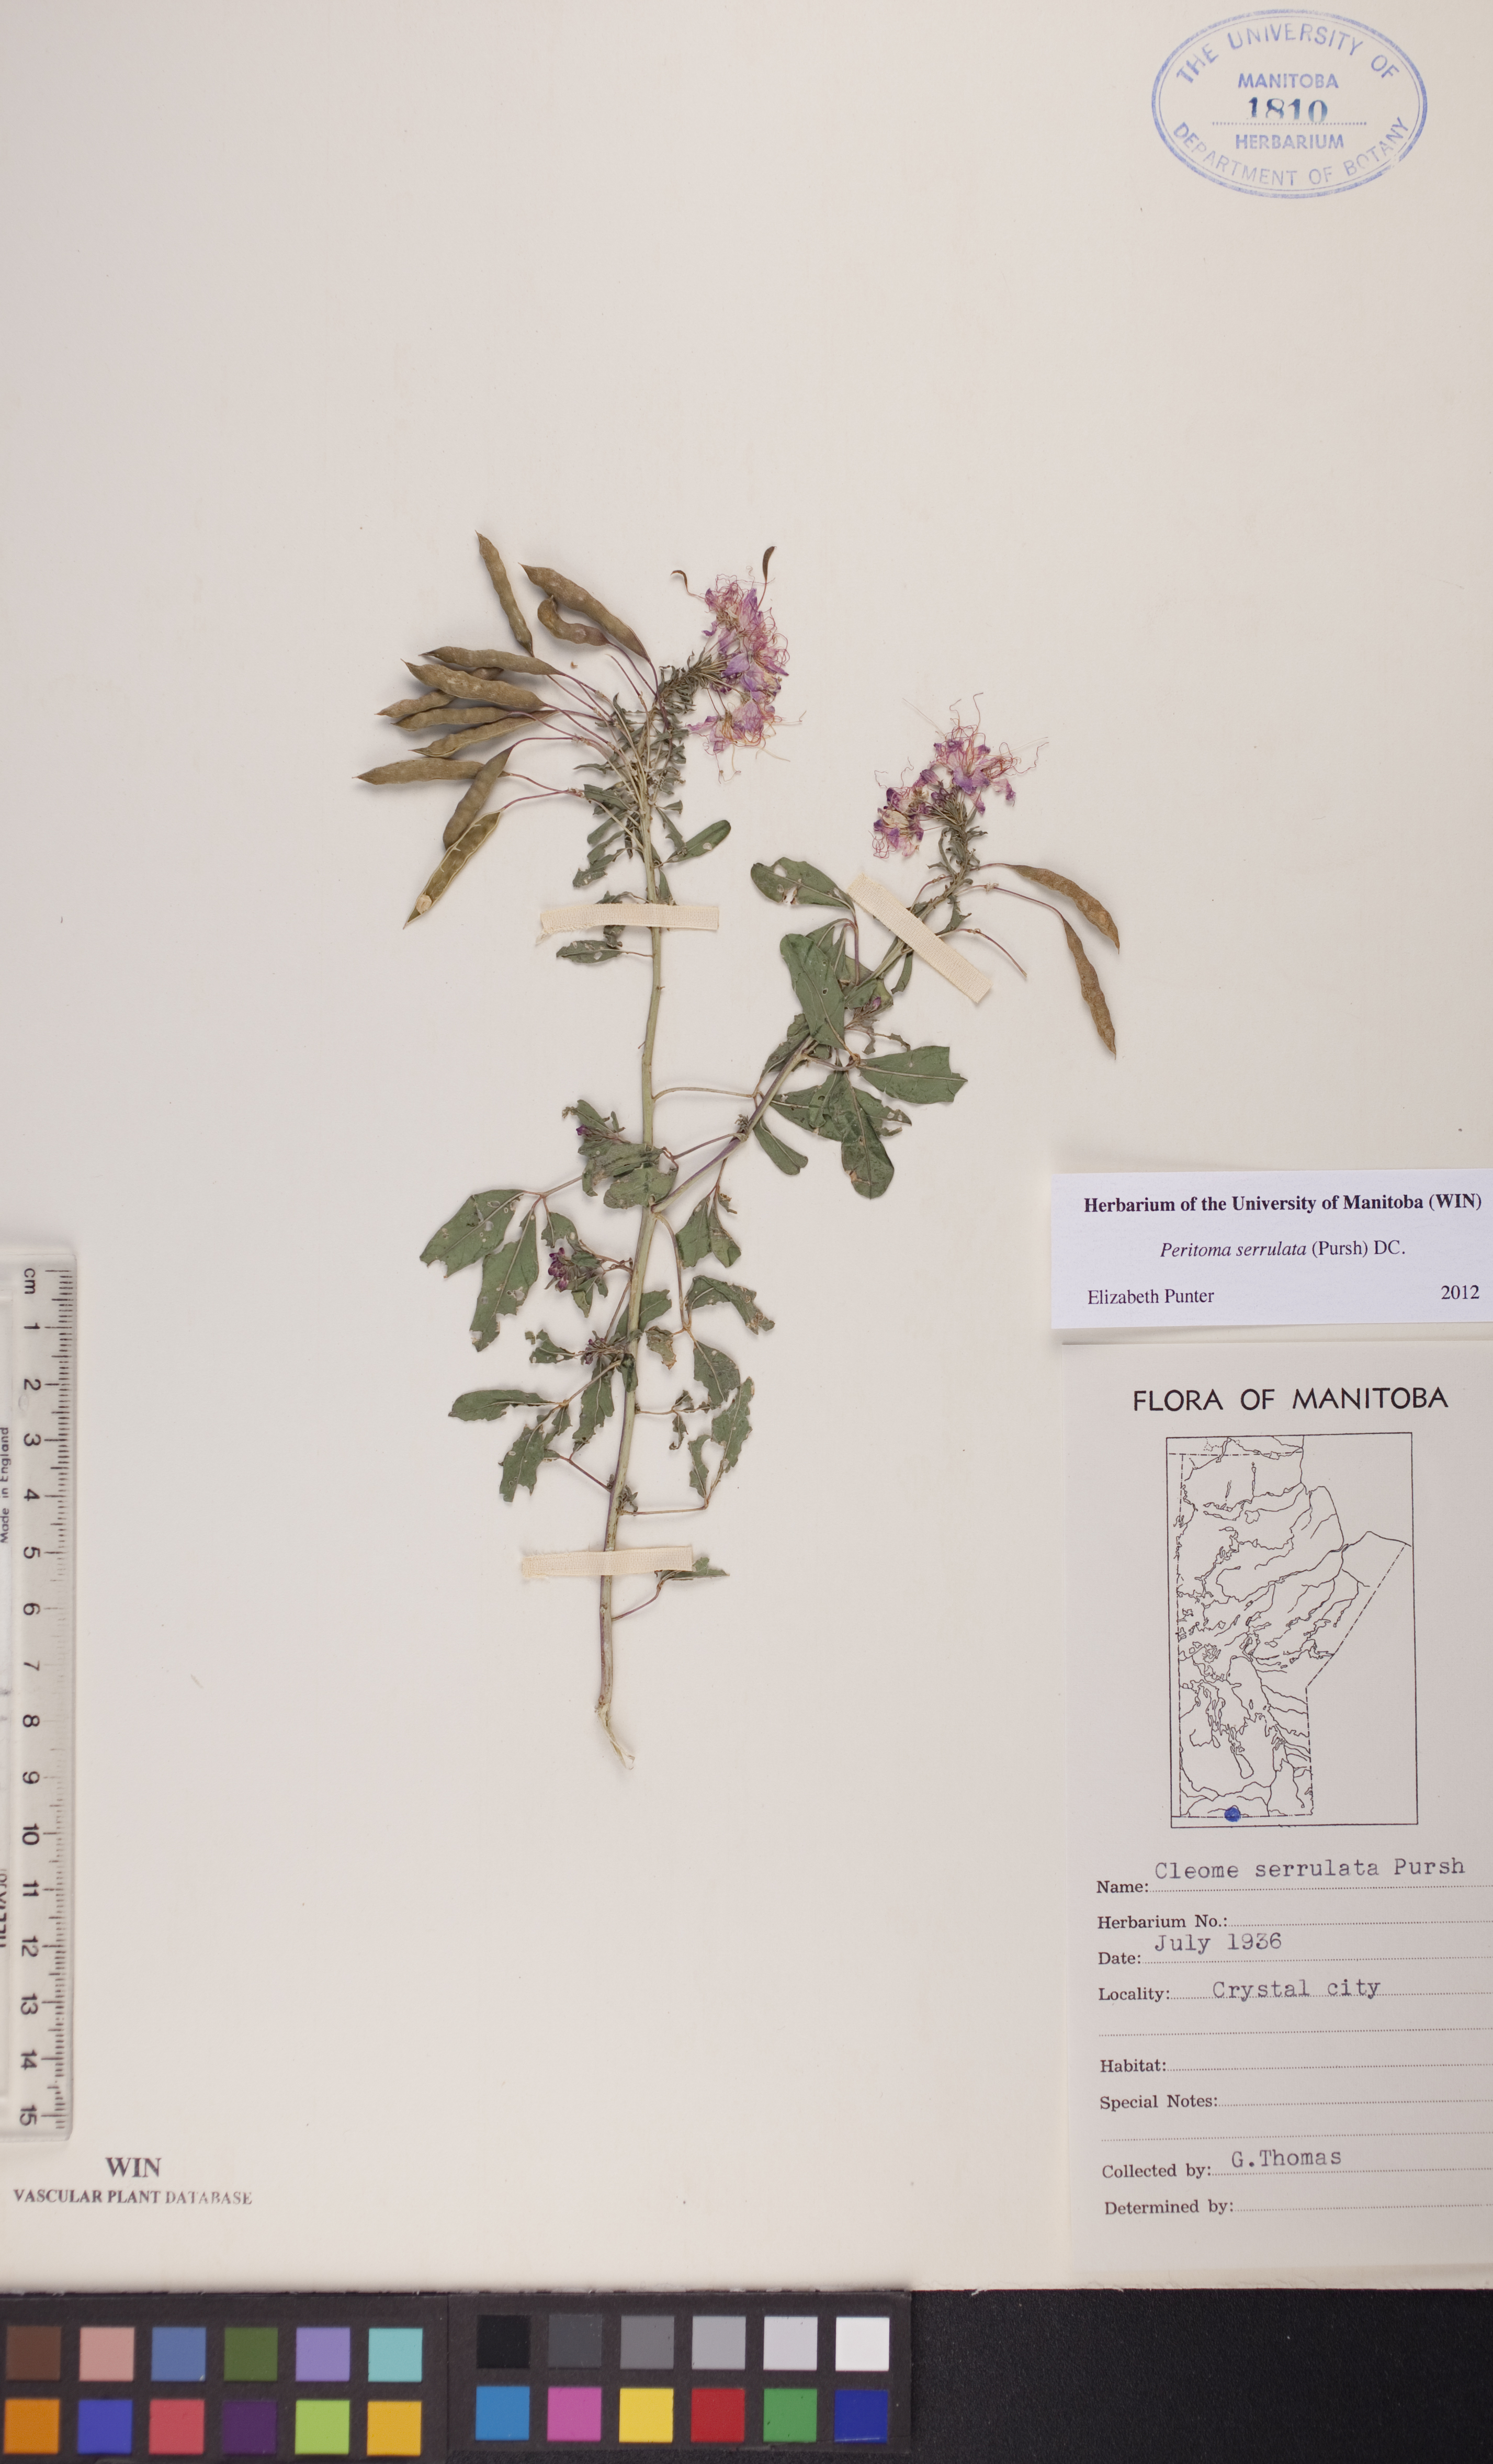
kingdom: Plantae
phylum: Tracheophyta
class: Magnoliopsida
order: Brassicales
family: Cleomaceae
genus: Cleomella
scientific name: Cleomella serrulata
